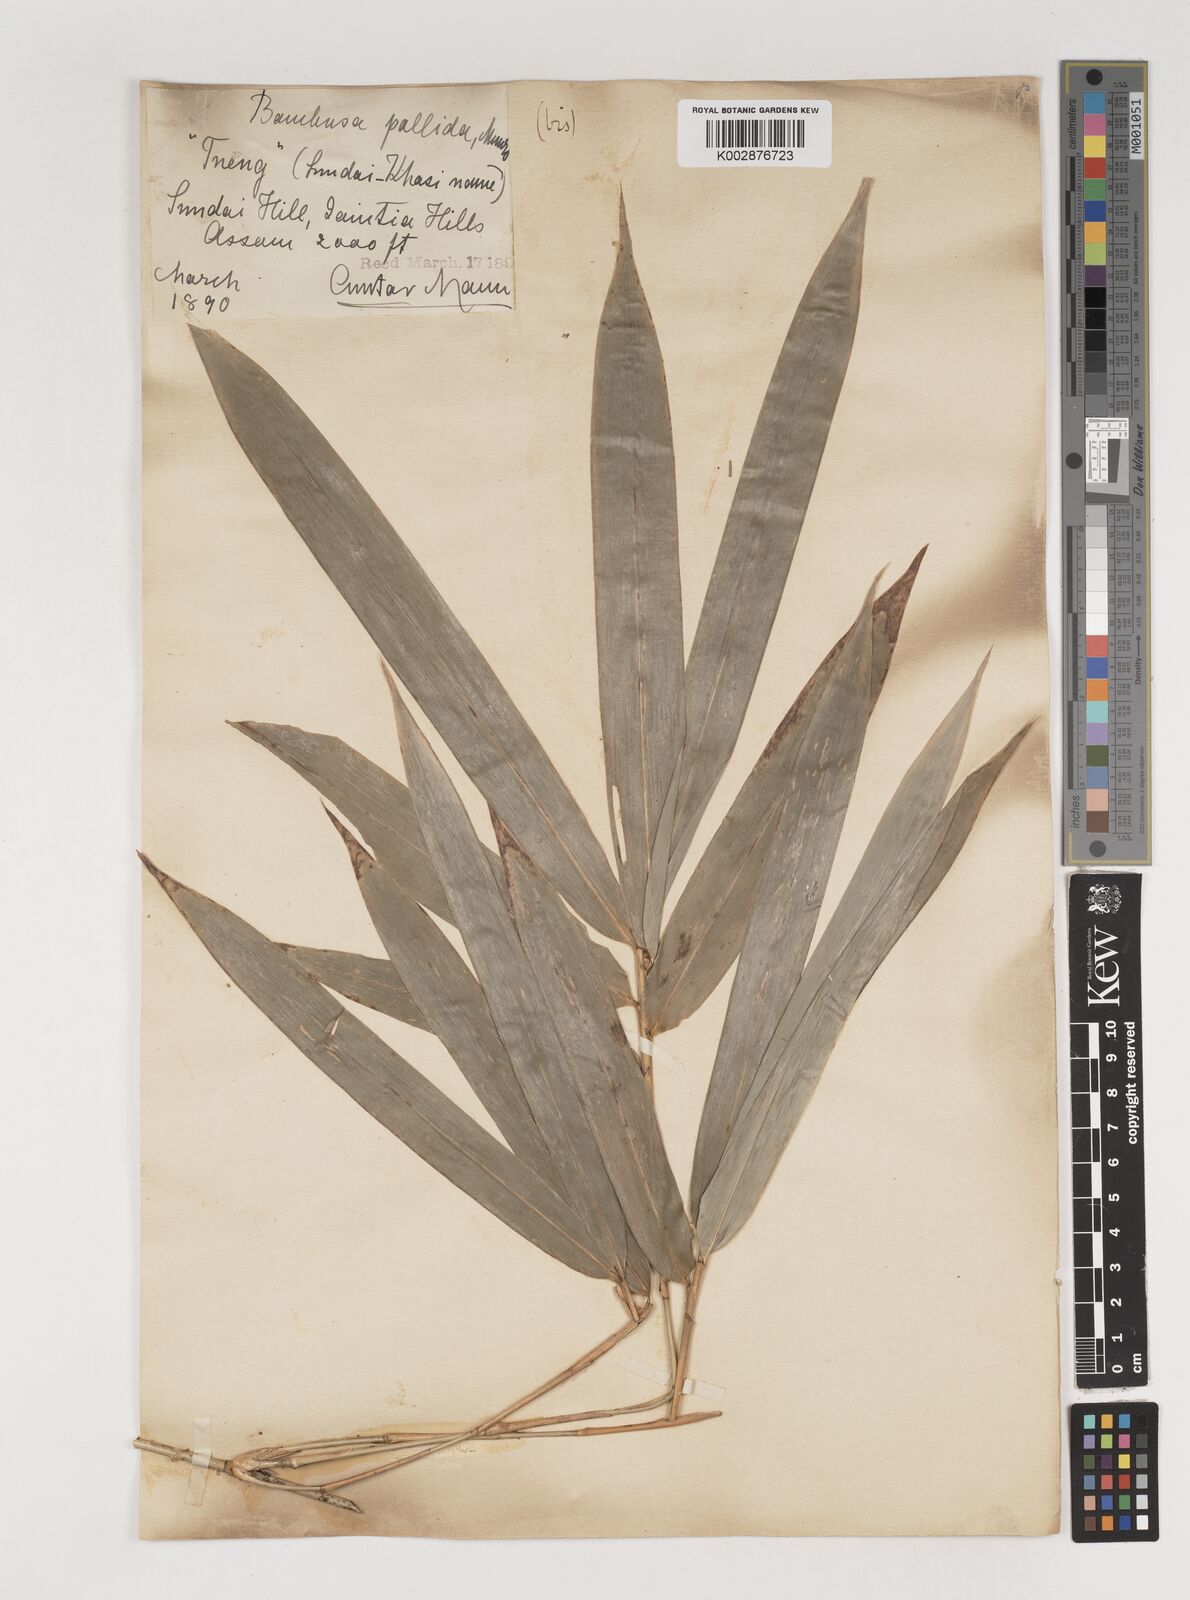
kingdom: Plantae
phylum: Tracheophyta
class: Liliopsida
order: Poales
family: Poaceae
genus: Bambusa
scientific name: Bambusa pallida
